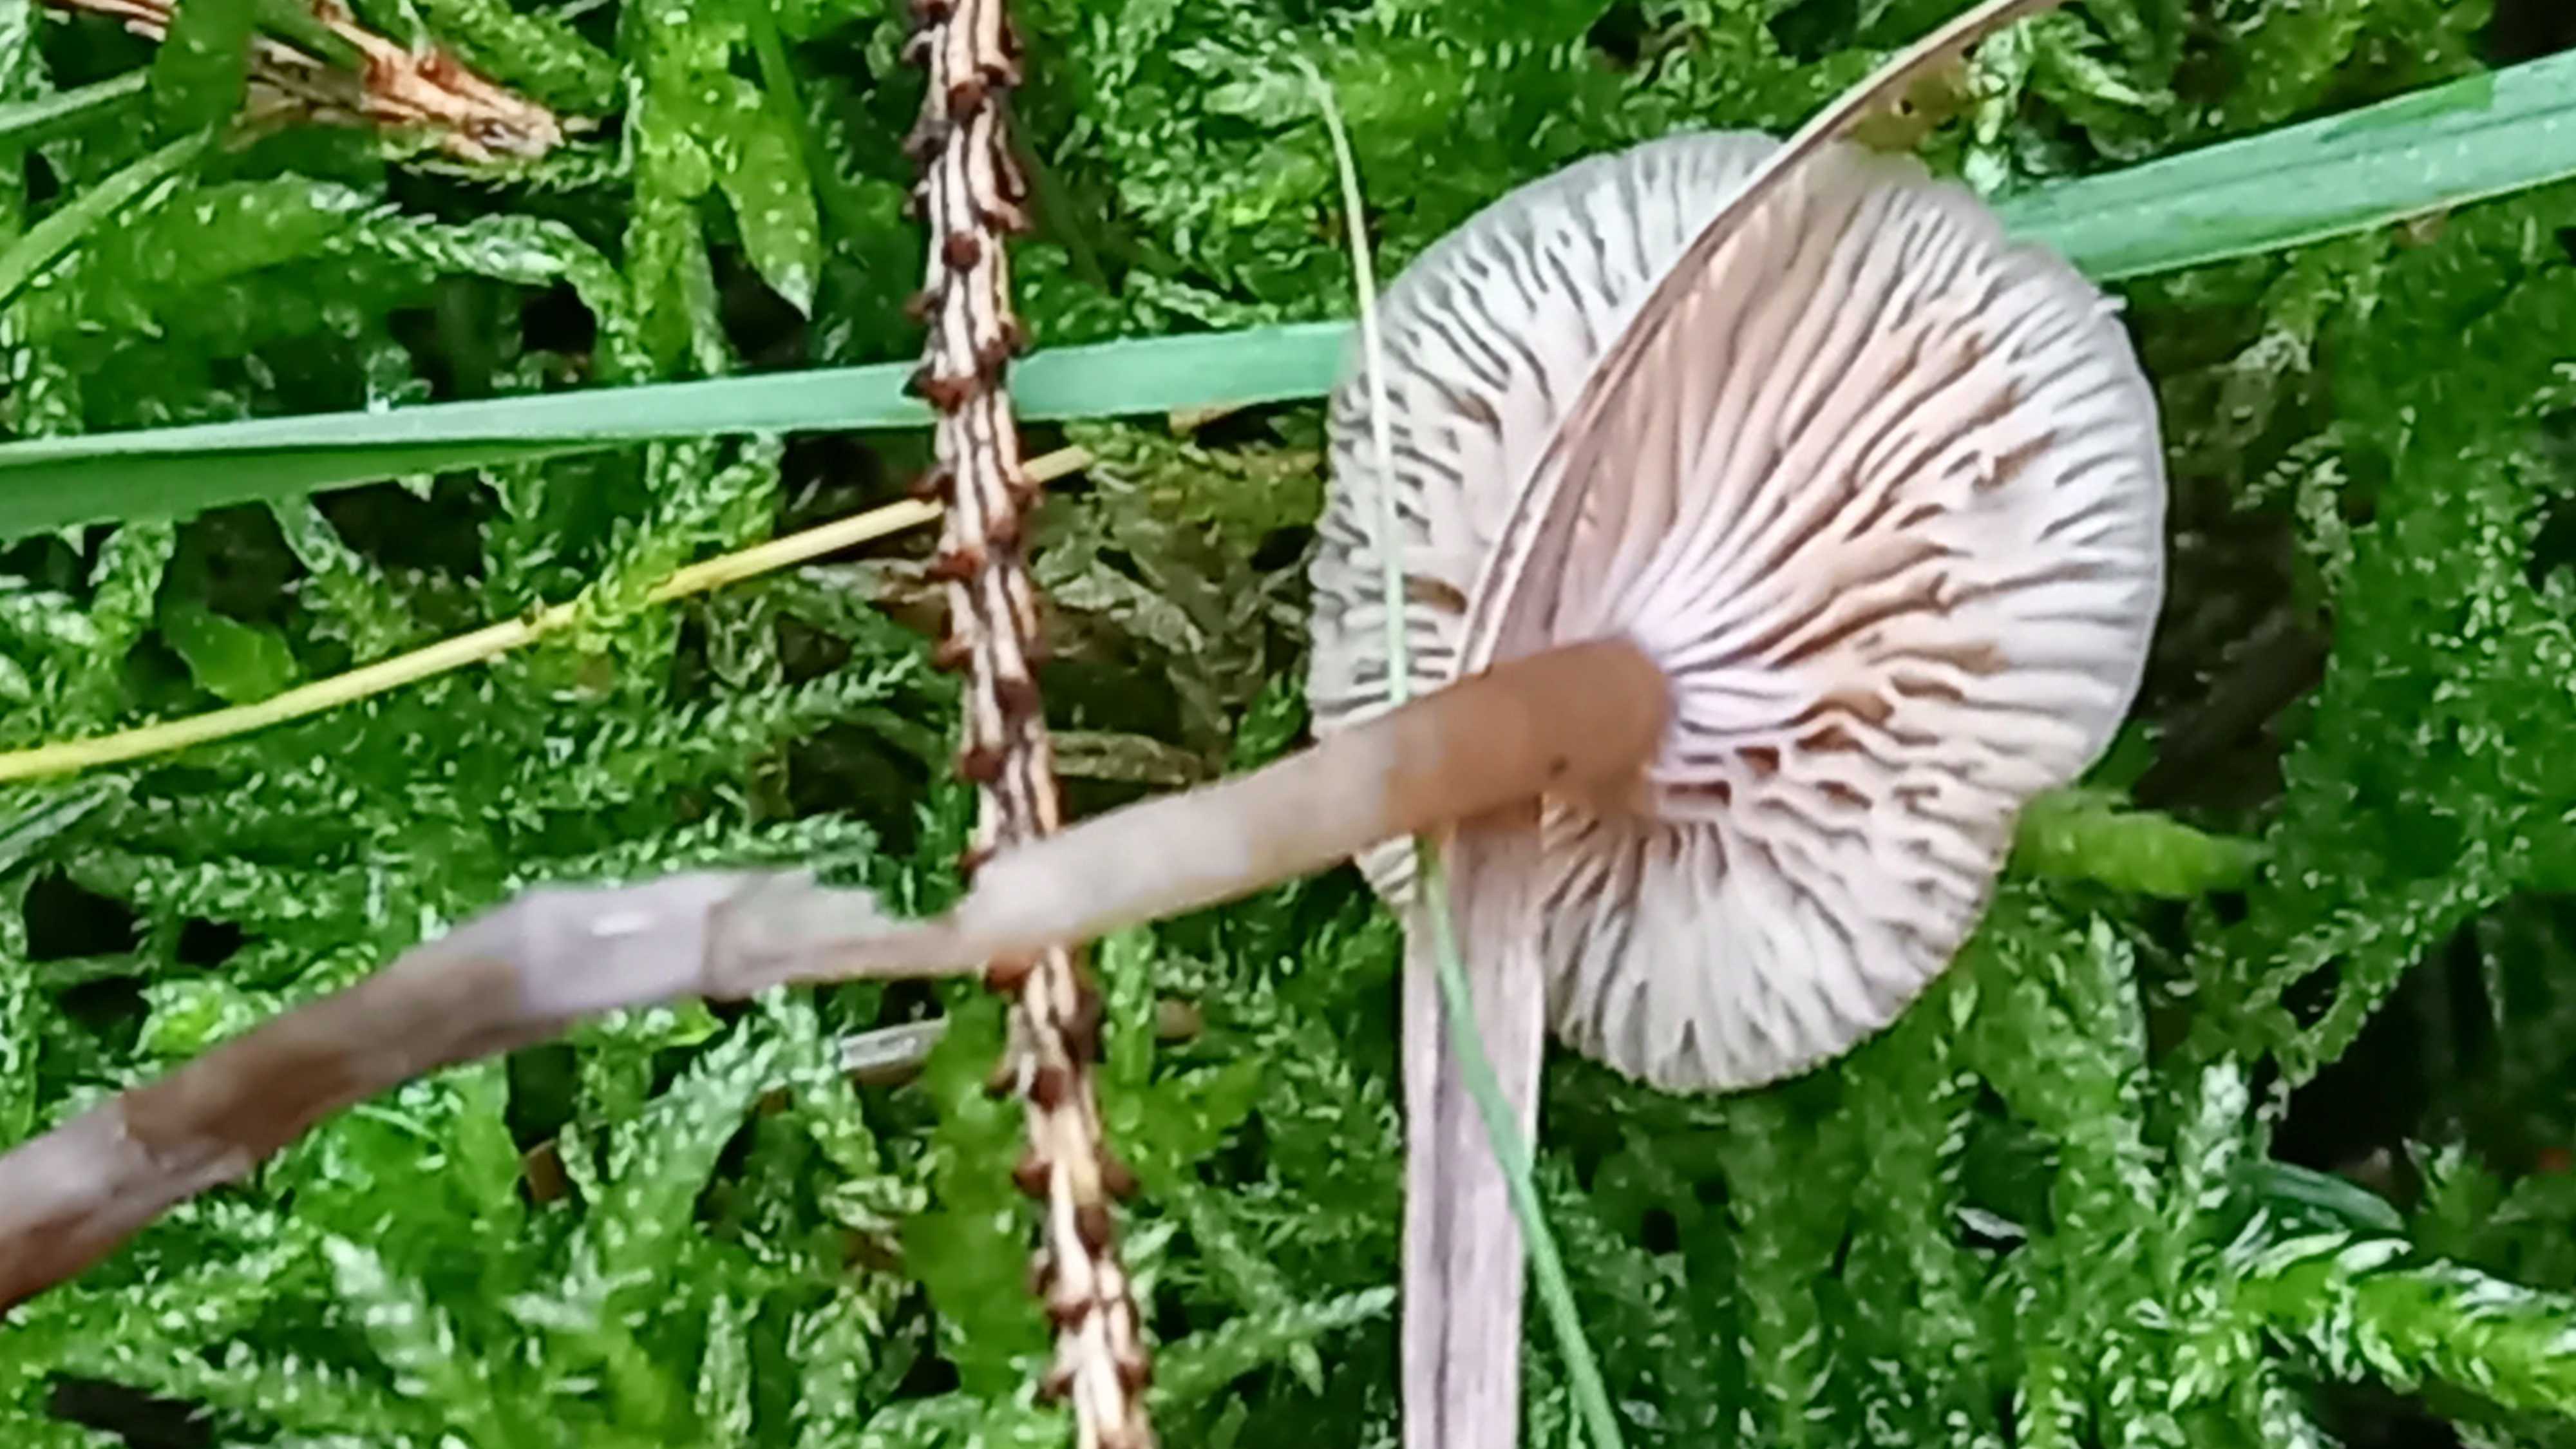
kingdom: Fungi
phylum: Basidiomycota
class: Agaricomycetes
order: Agaricales
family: Tricholomataceae
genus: Clitocybe
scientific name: Clitocybe fragrans
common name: vellugtende tragthat
